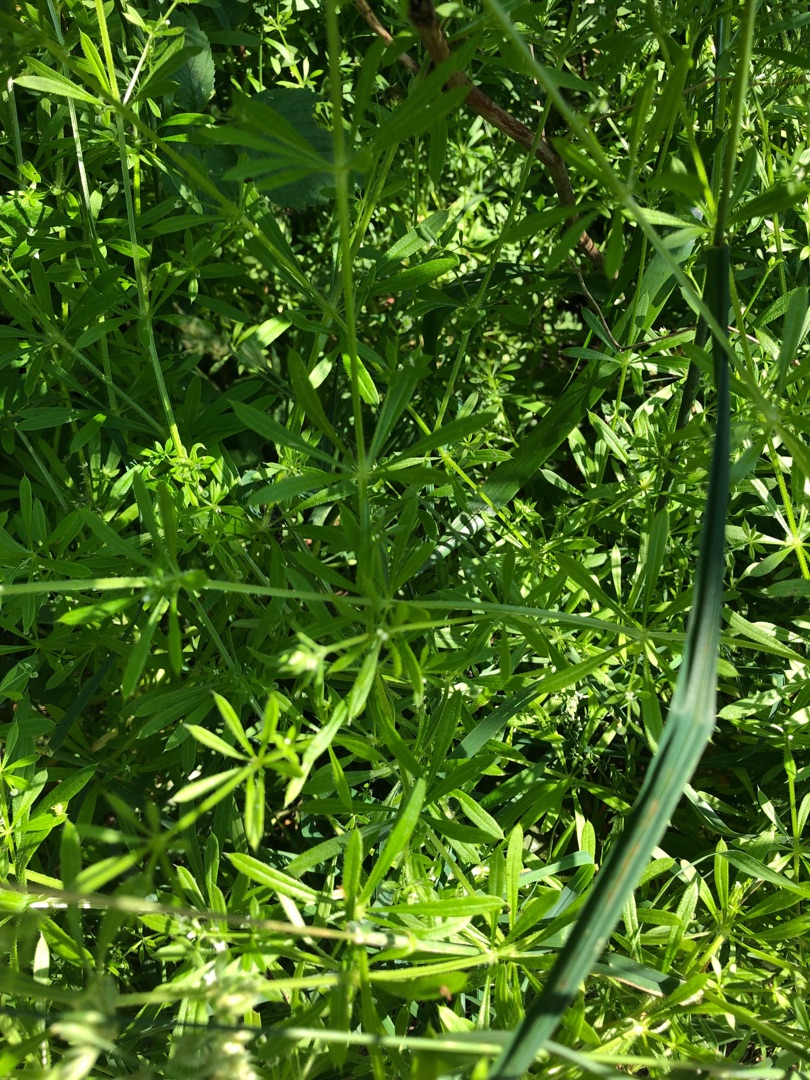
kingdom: Plantae
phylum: Tracheophyta
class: Magnoliopsida
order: Gentianales
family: Rubiaceae
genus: Galium
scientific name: Galium aparine
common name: Burre-snerre
